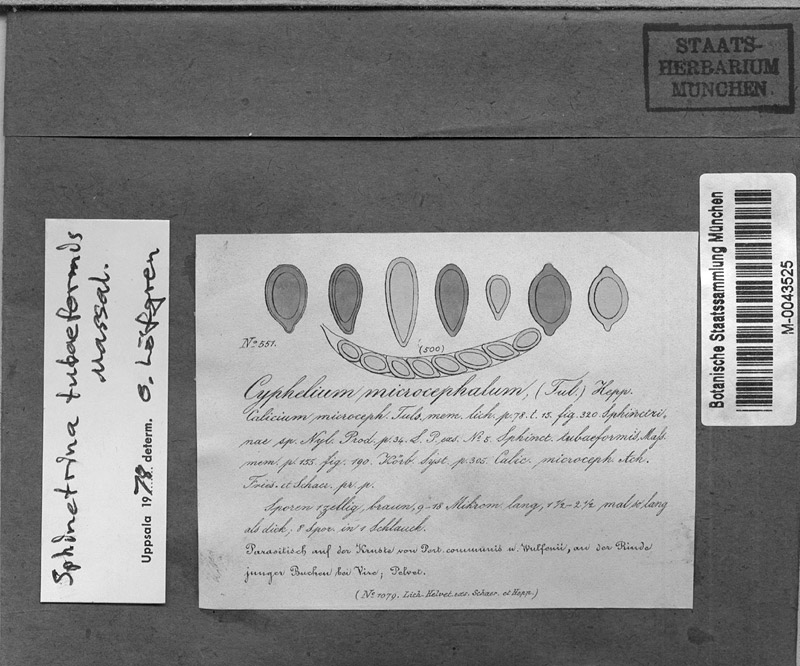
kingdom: Fungi
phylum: Ascomycota
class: Eurotiomycetes
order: Mycocaliciales
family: Sphinctrinaceae
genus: Sphinctrina
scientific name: Sphinctrina tubiformis
